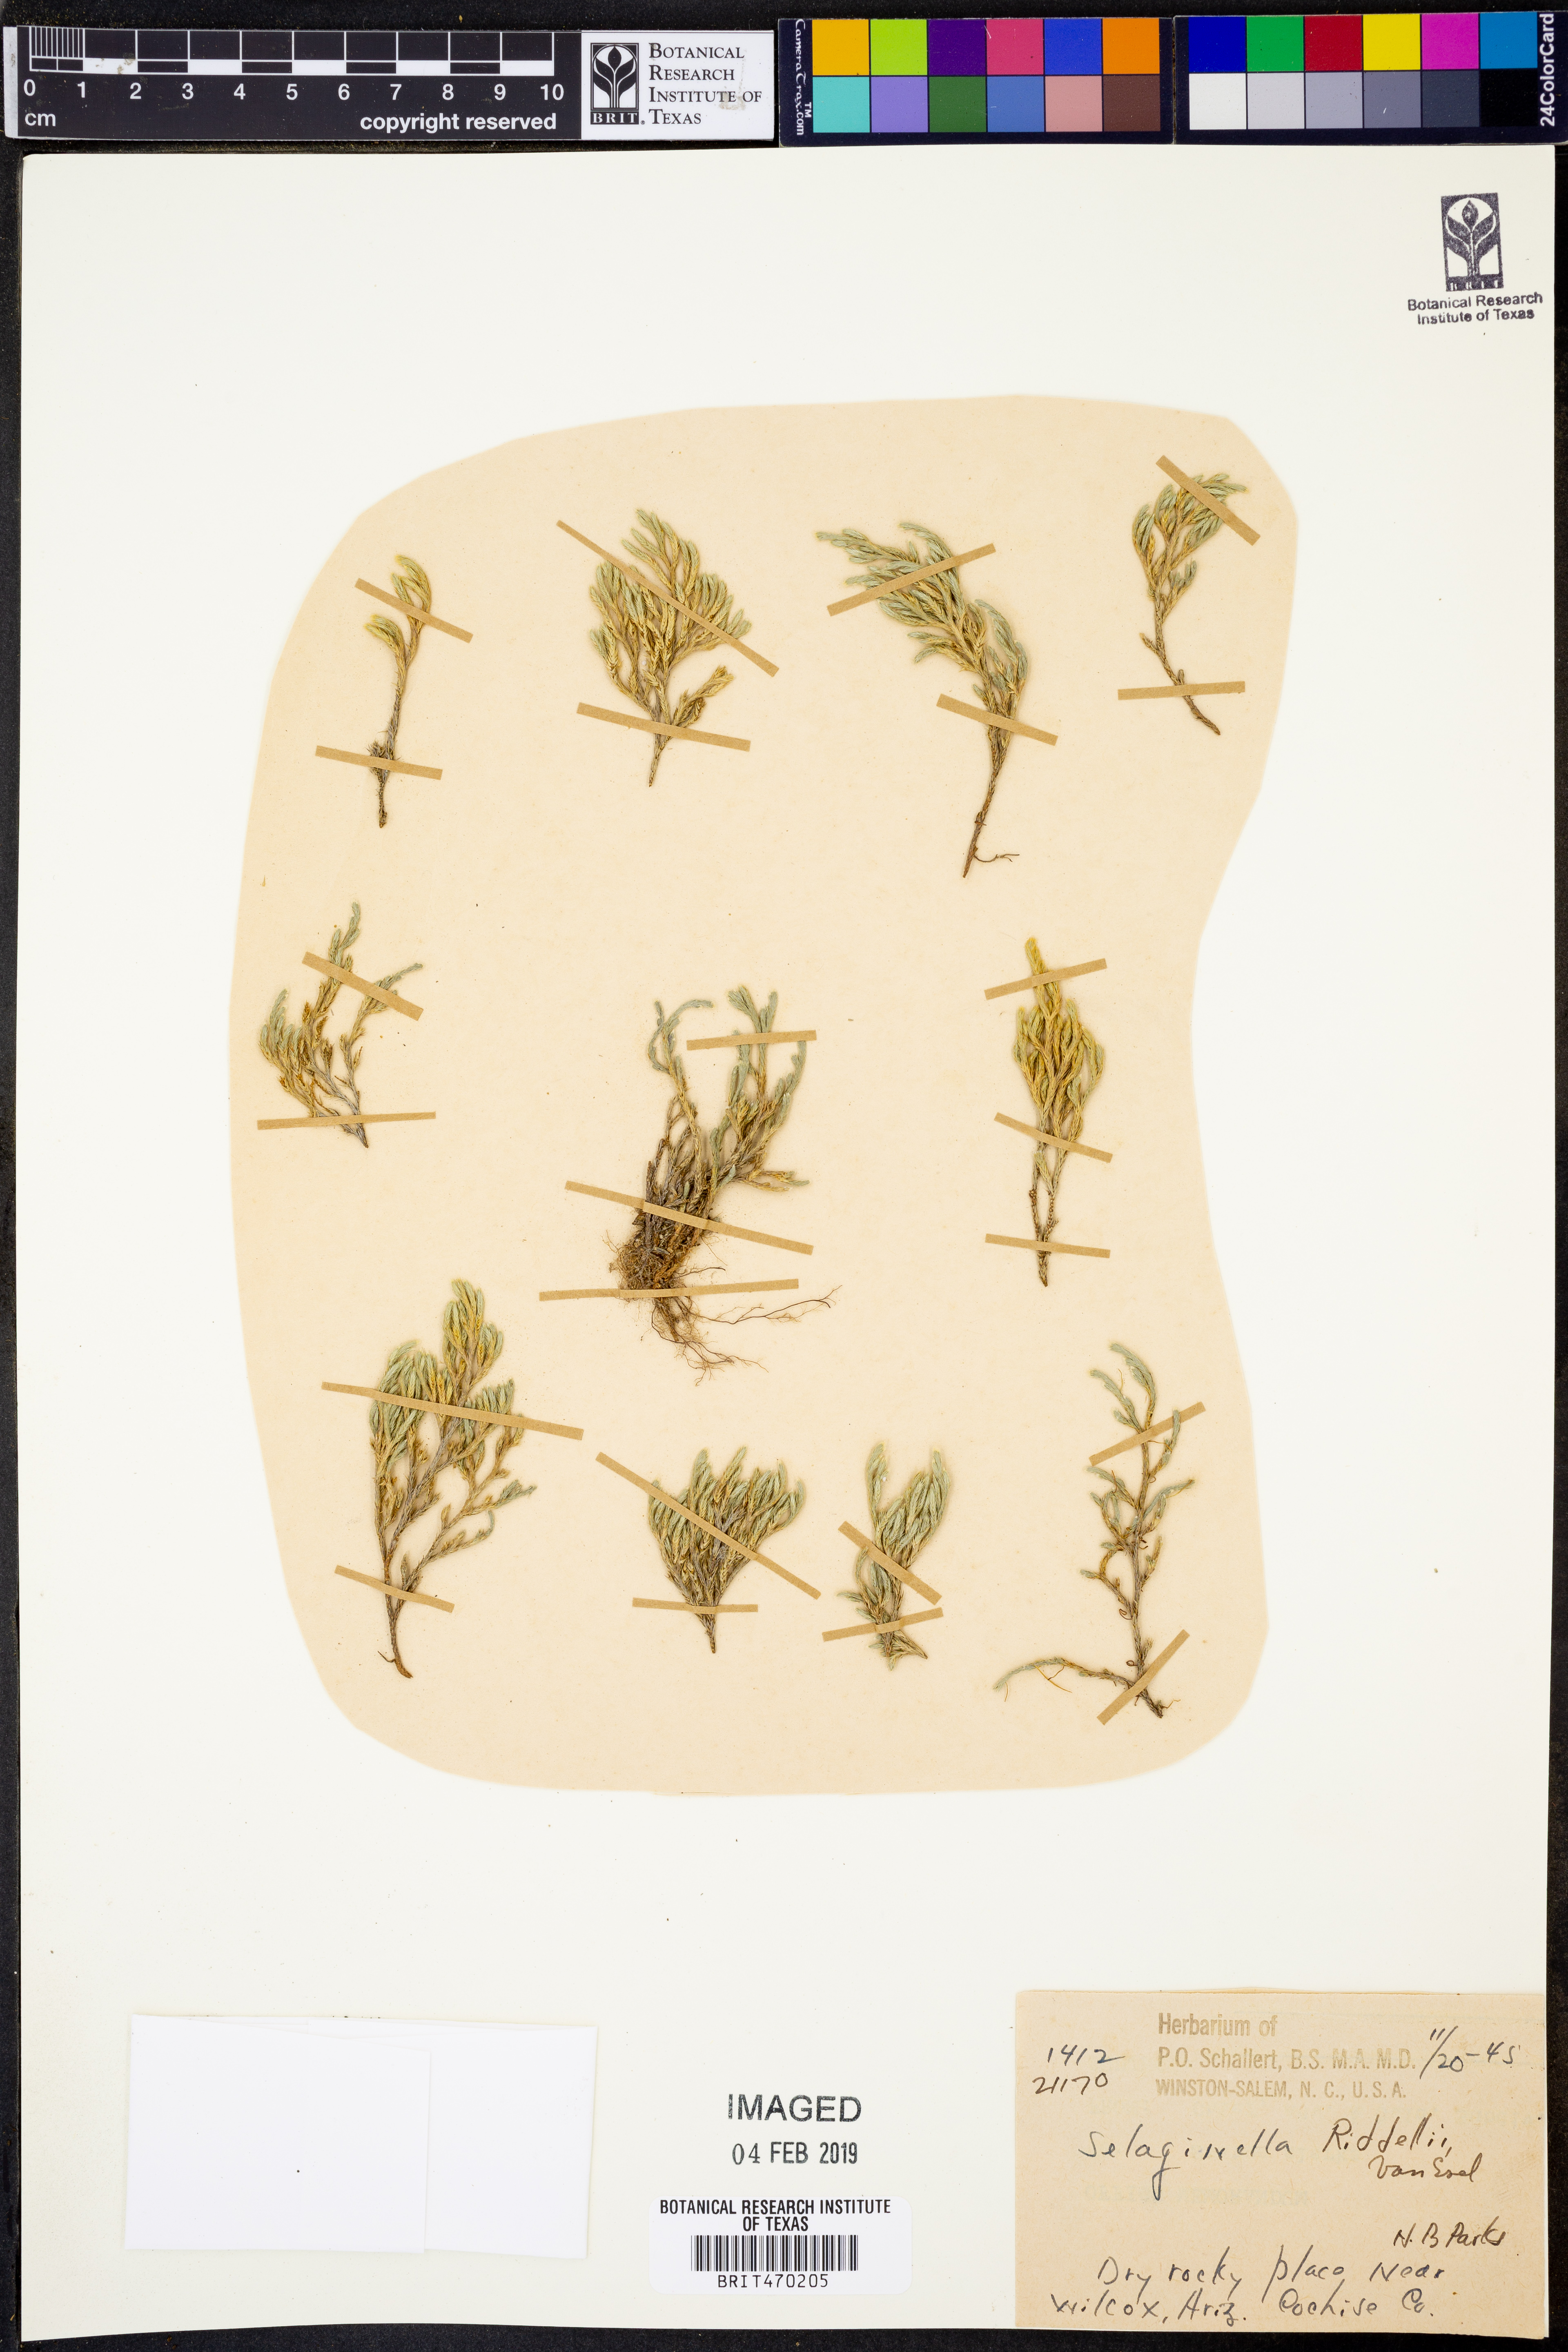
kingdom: Plantae
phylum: Tracheophyta
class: Lycopodiopsida
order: Selaginellales
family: Selaginellaceae
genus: Selaginella
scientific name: Selaginella corallina
